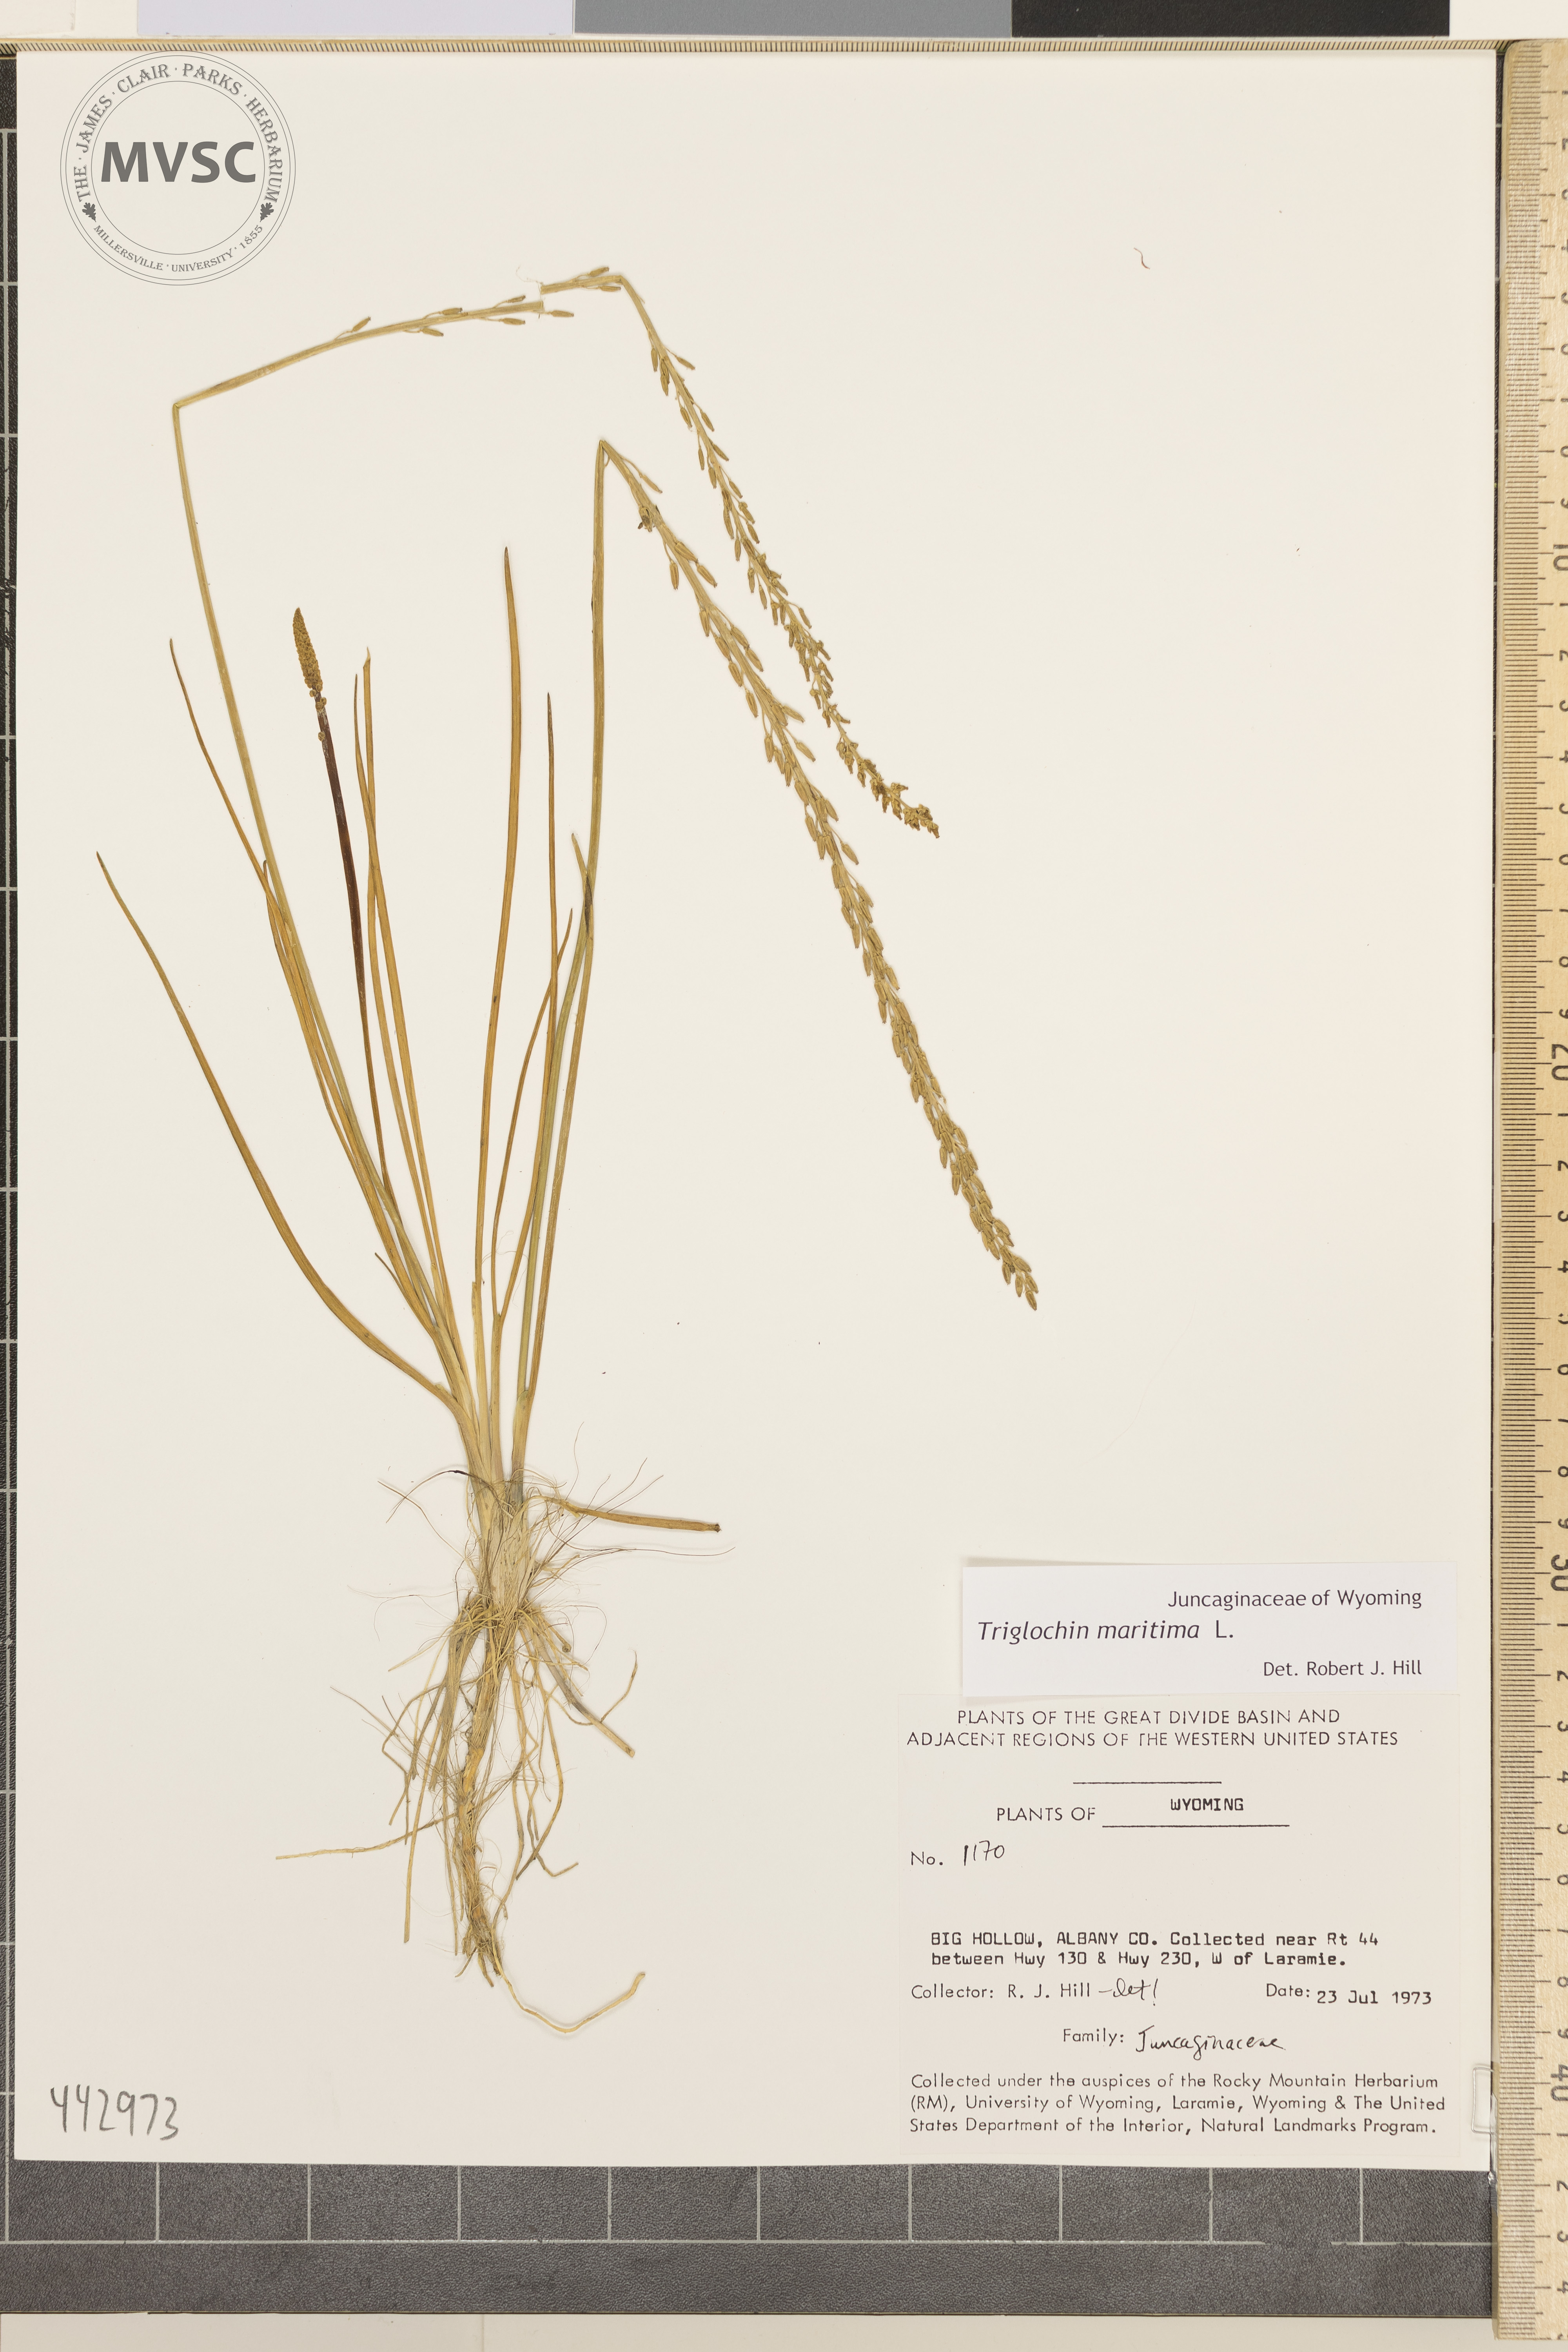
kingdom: Plantae
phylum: Tracheophyta
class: Liliopsida
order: Alismatales
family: Juncaginaceae
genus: Triglochin
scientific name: Triglochin maritima
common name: Sea arrowgrass
